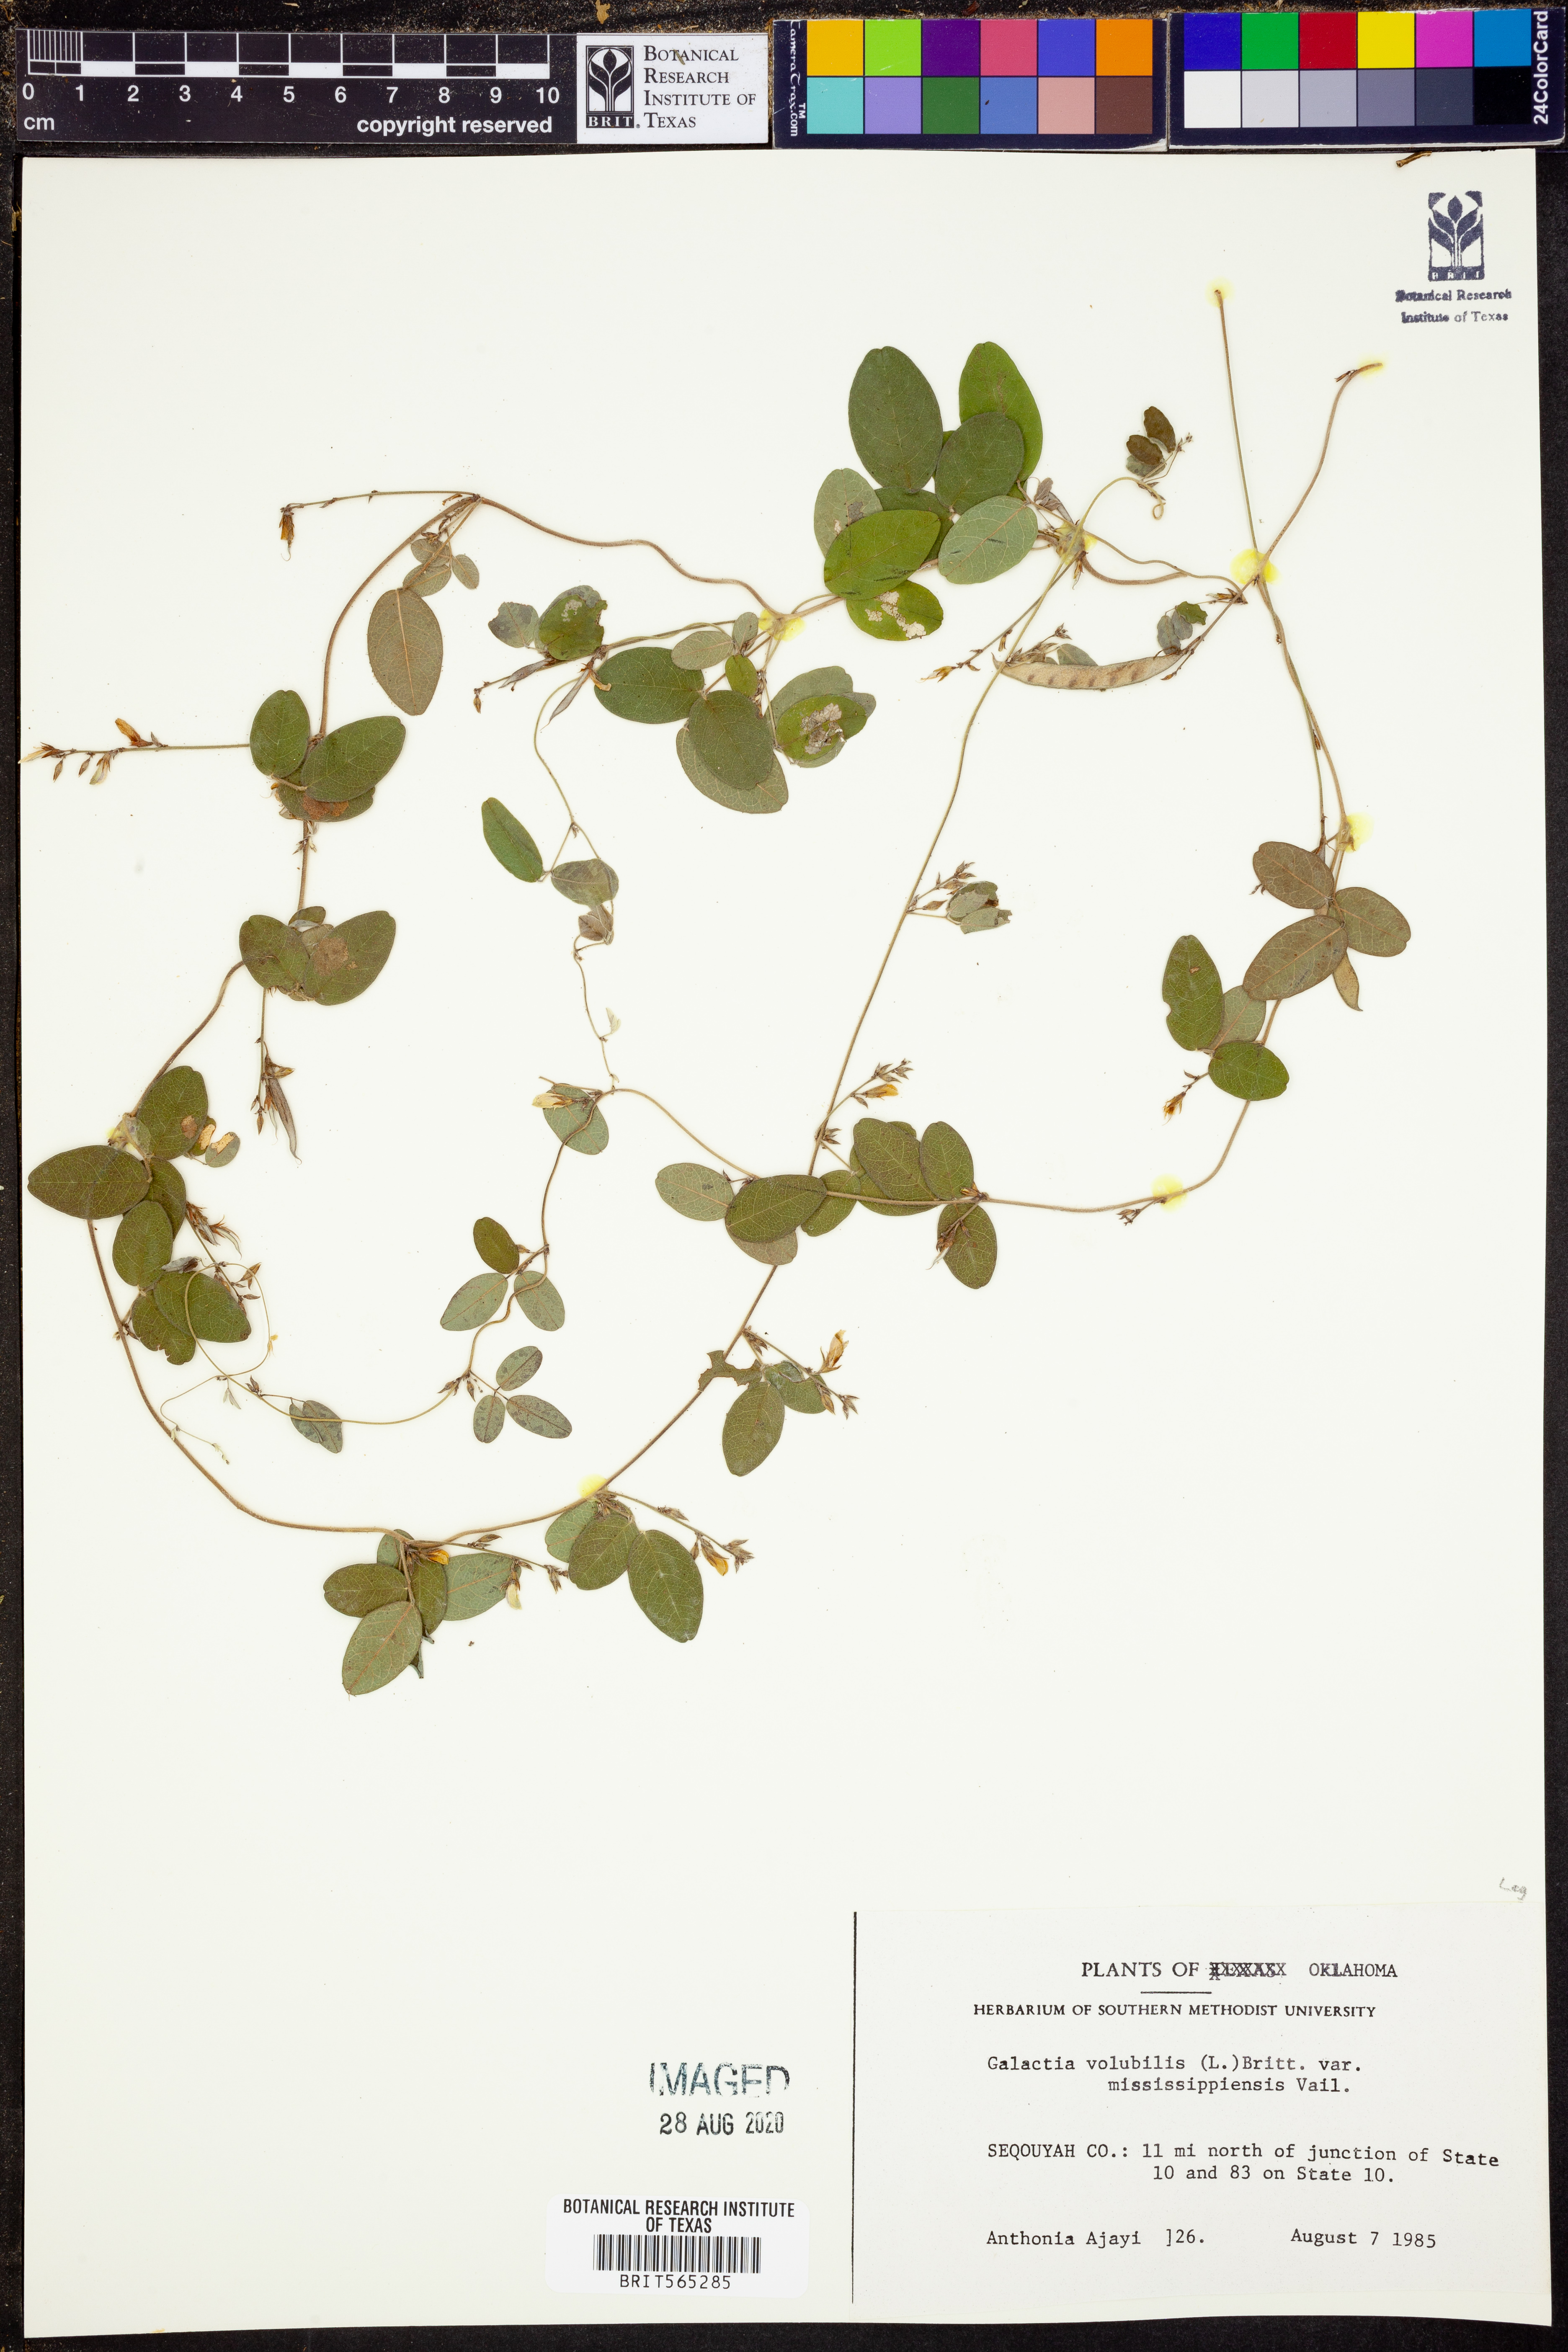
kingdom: Plantae
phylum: Tracheophyta
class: Magnoliopsida
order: Fabales
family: Fabaceae
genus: Galactia
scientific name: Galactia volubilis
